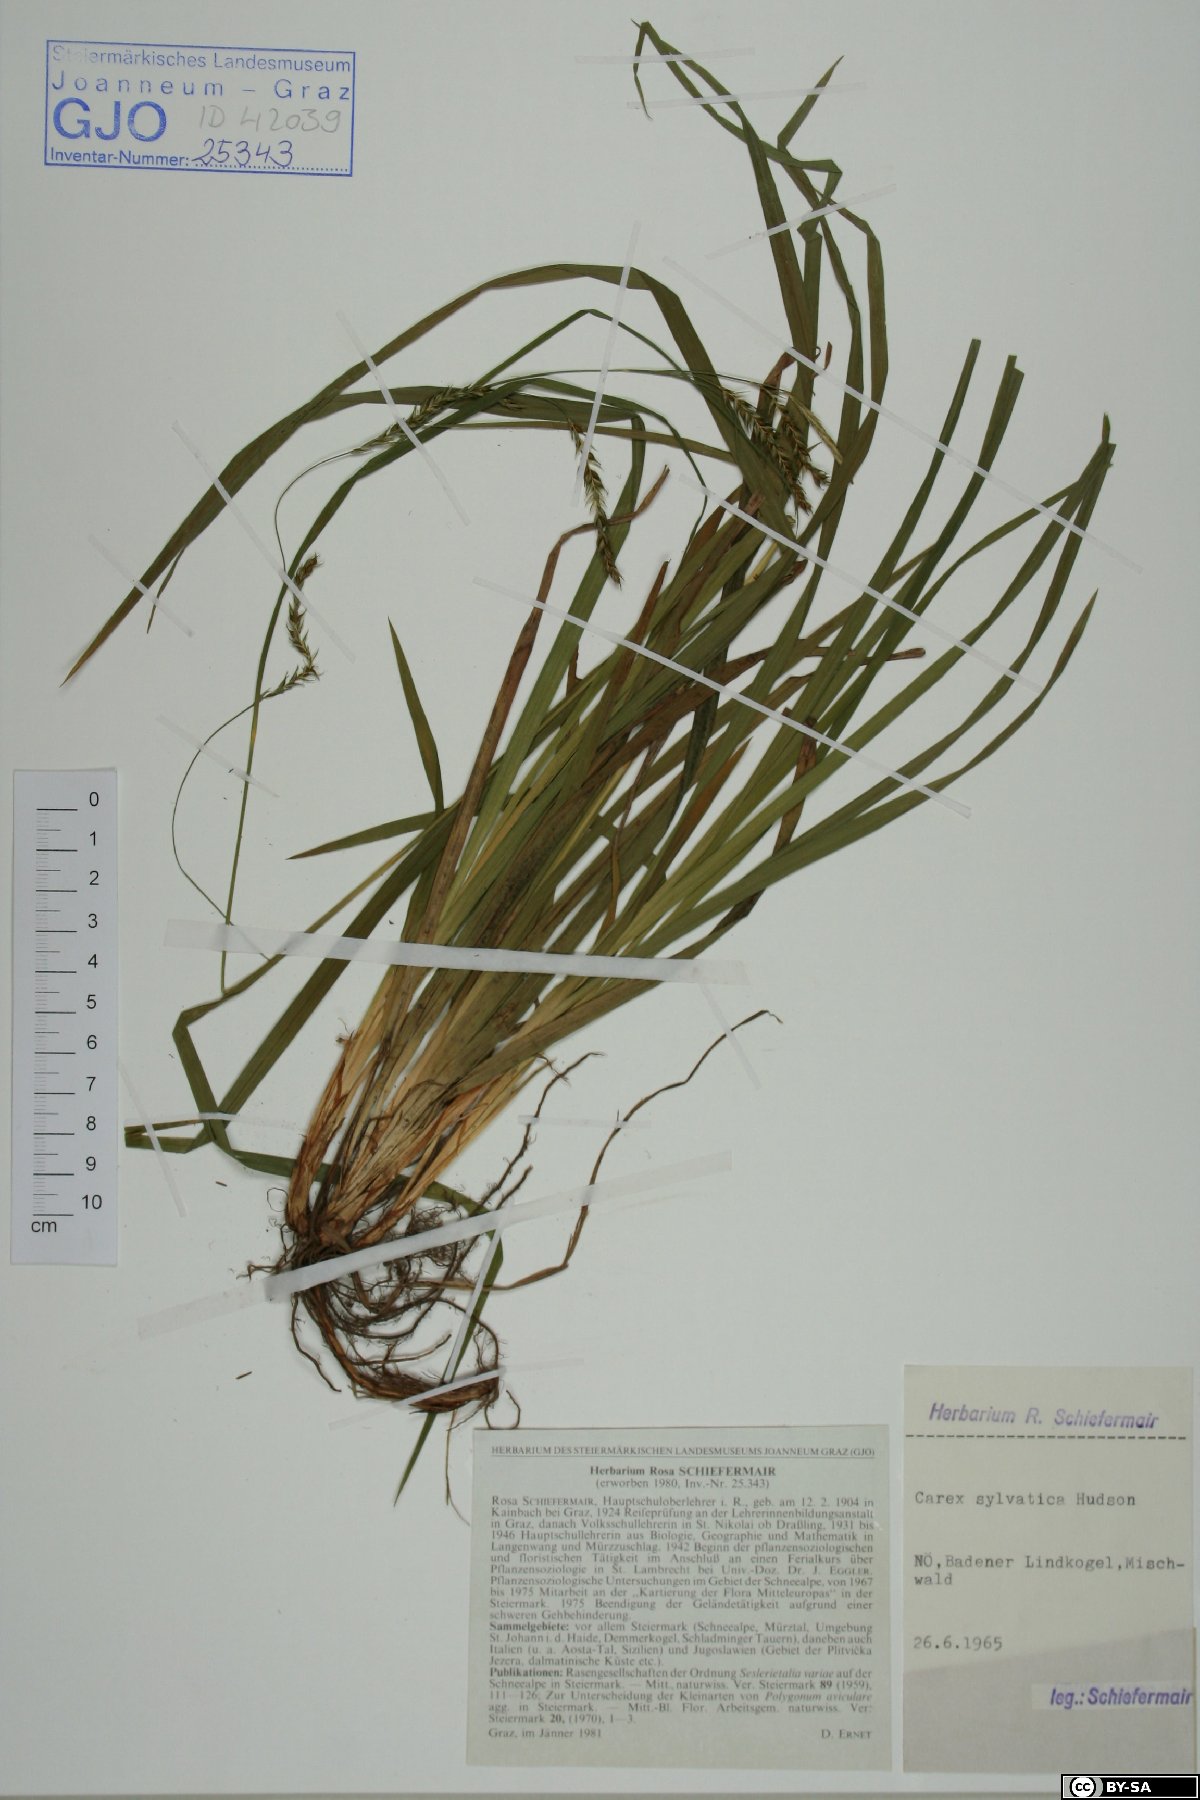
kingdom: Plantae
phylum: Tracheophyta
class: Liliopsida
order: Poales
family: Cyperaceae
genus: Carex
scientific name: Carex sylvatica
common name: Wood-sedge
